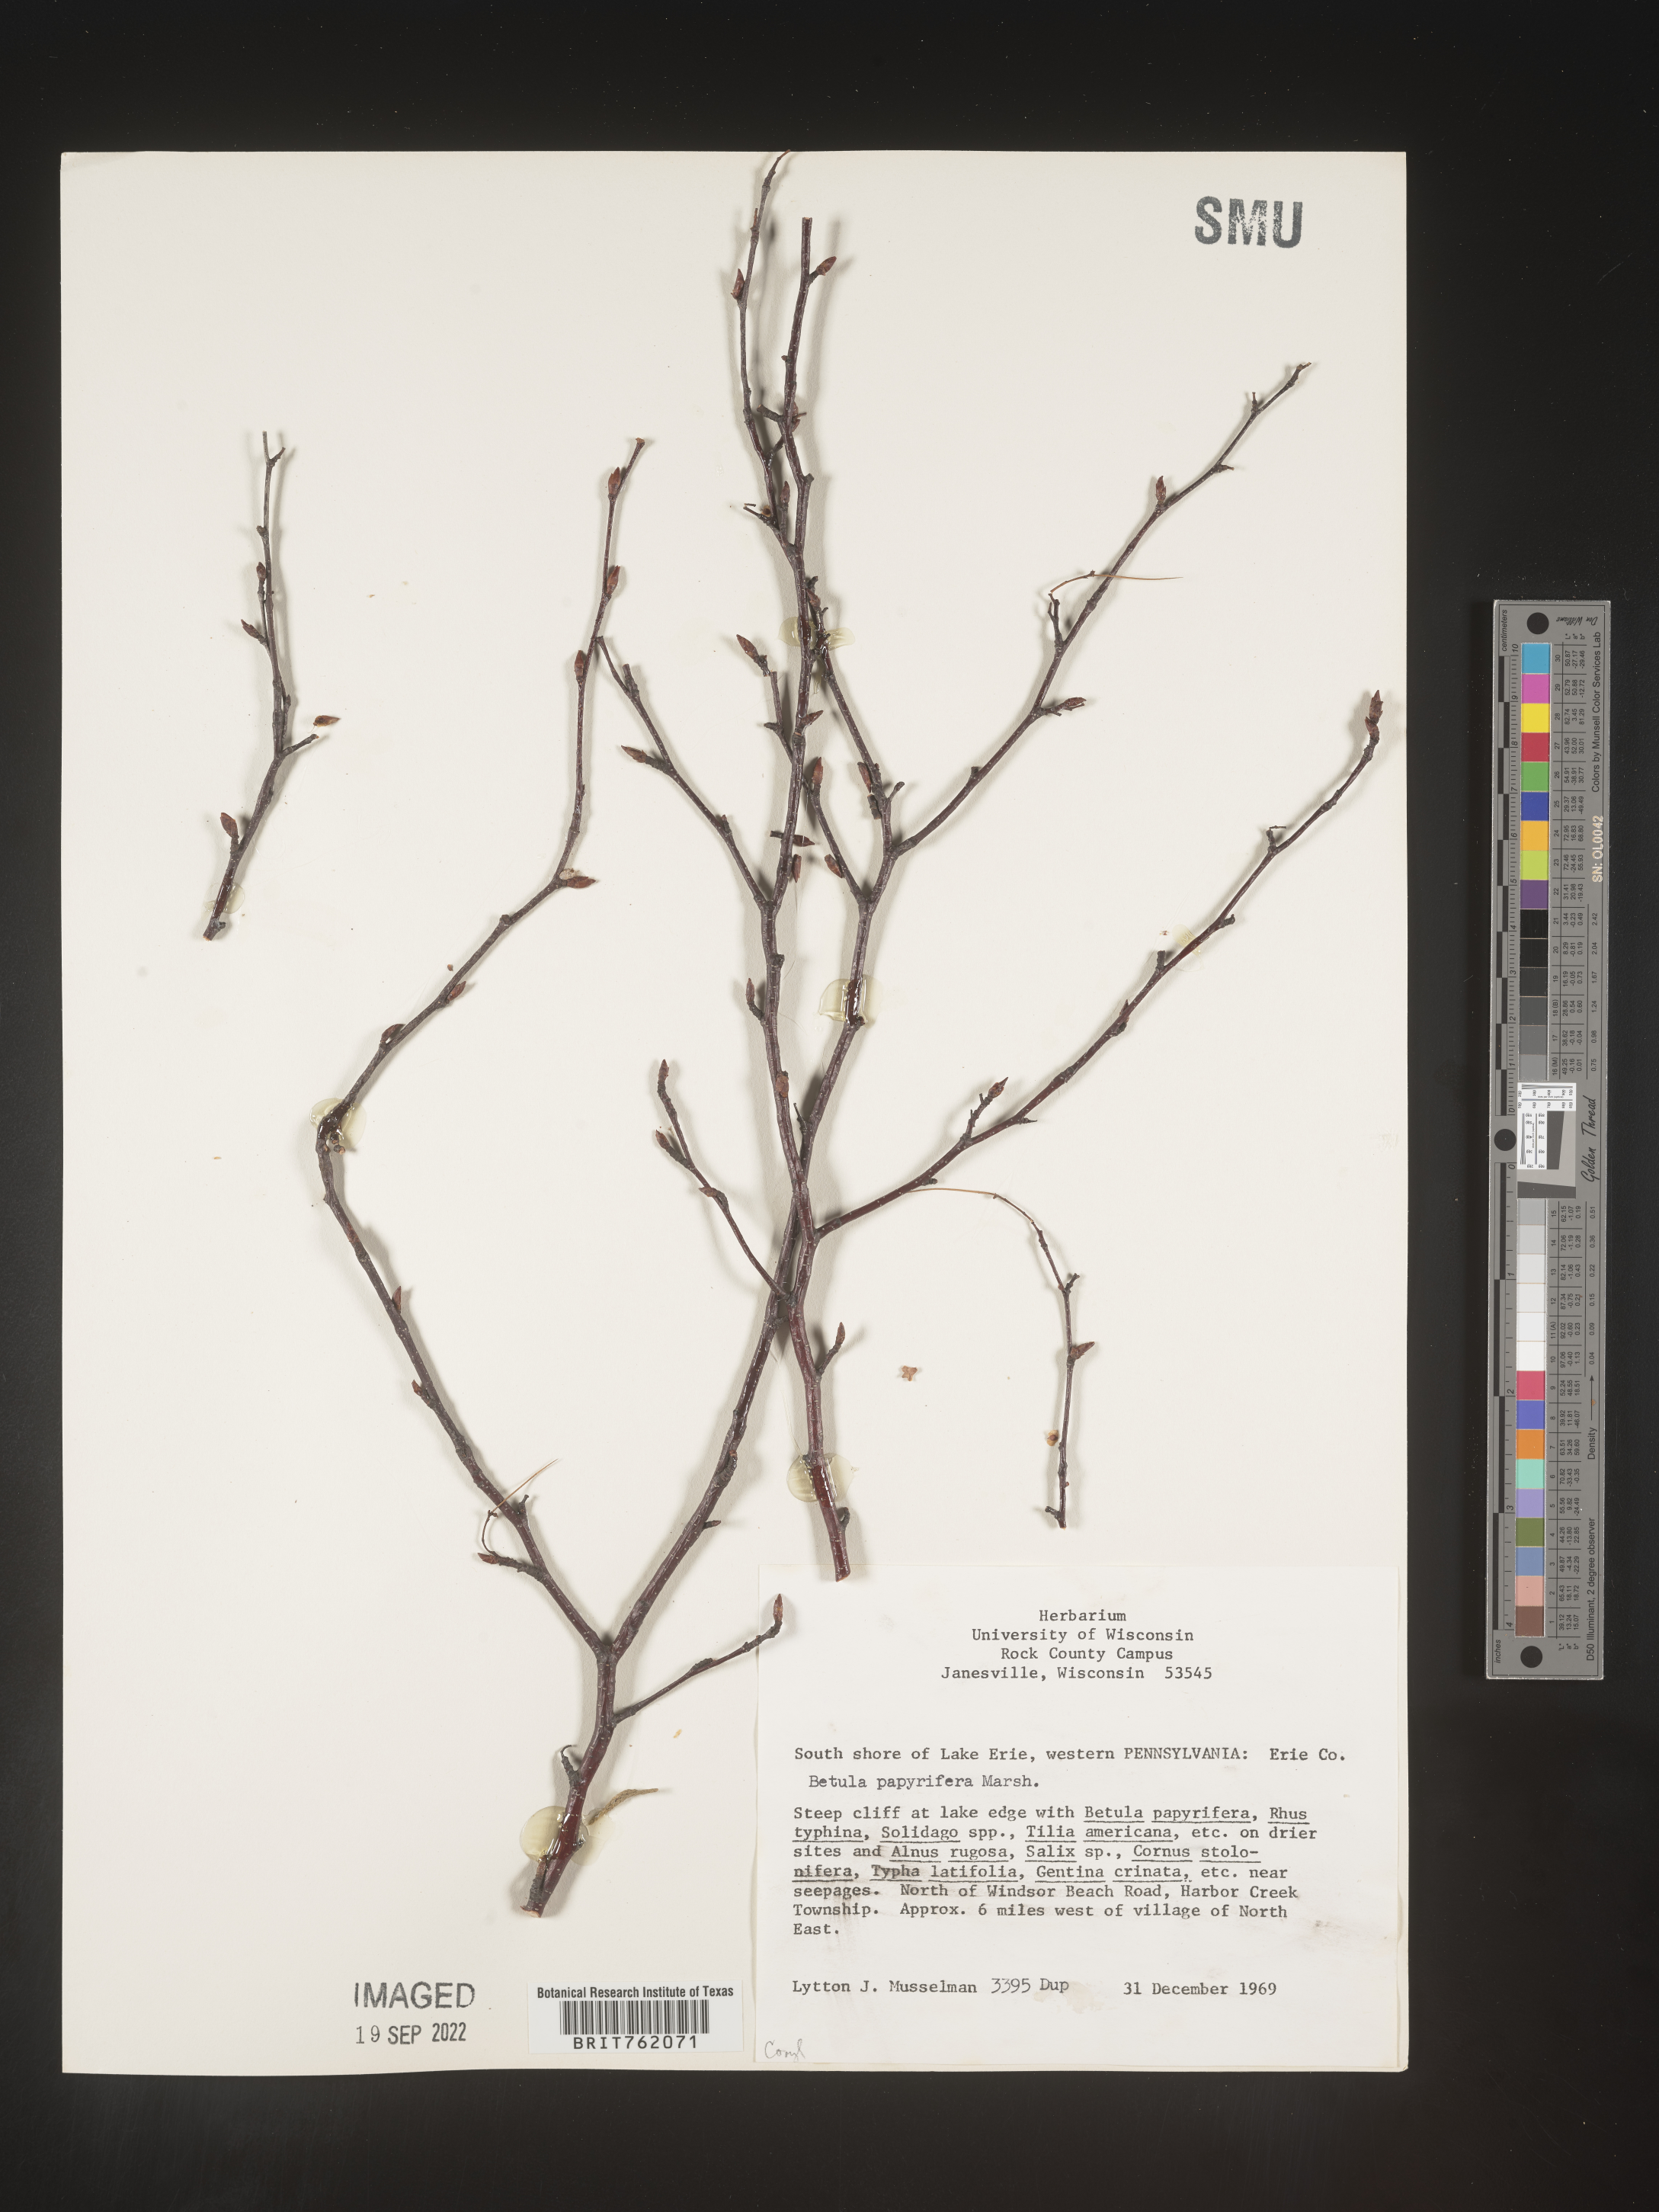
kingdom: Plantae
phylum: Tracheophyta
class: Magnoliopsida
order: Fagales
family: Betulaceae
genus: Betula
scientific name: Betula papyrifera
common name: Paper birch
